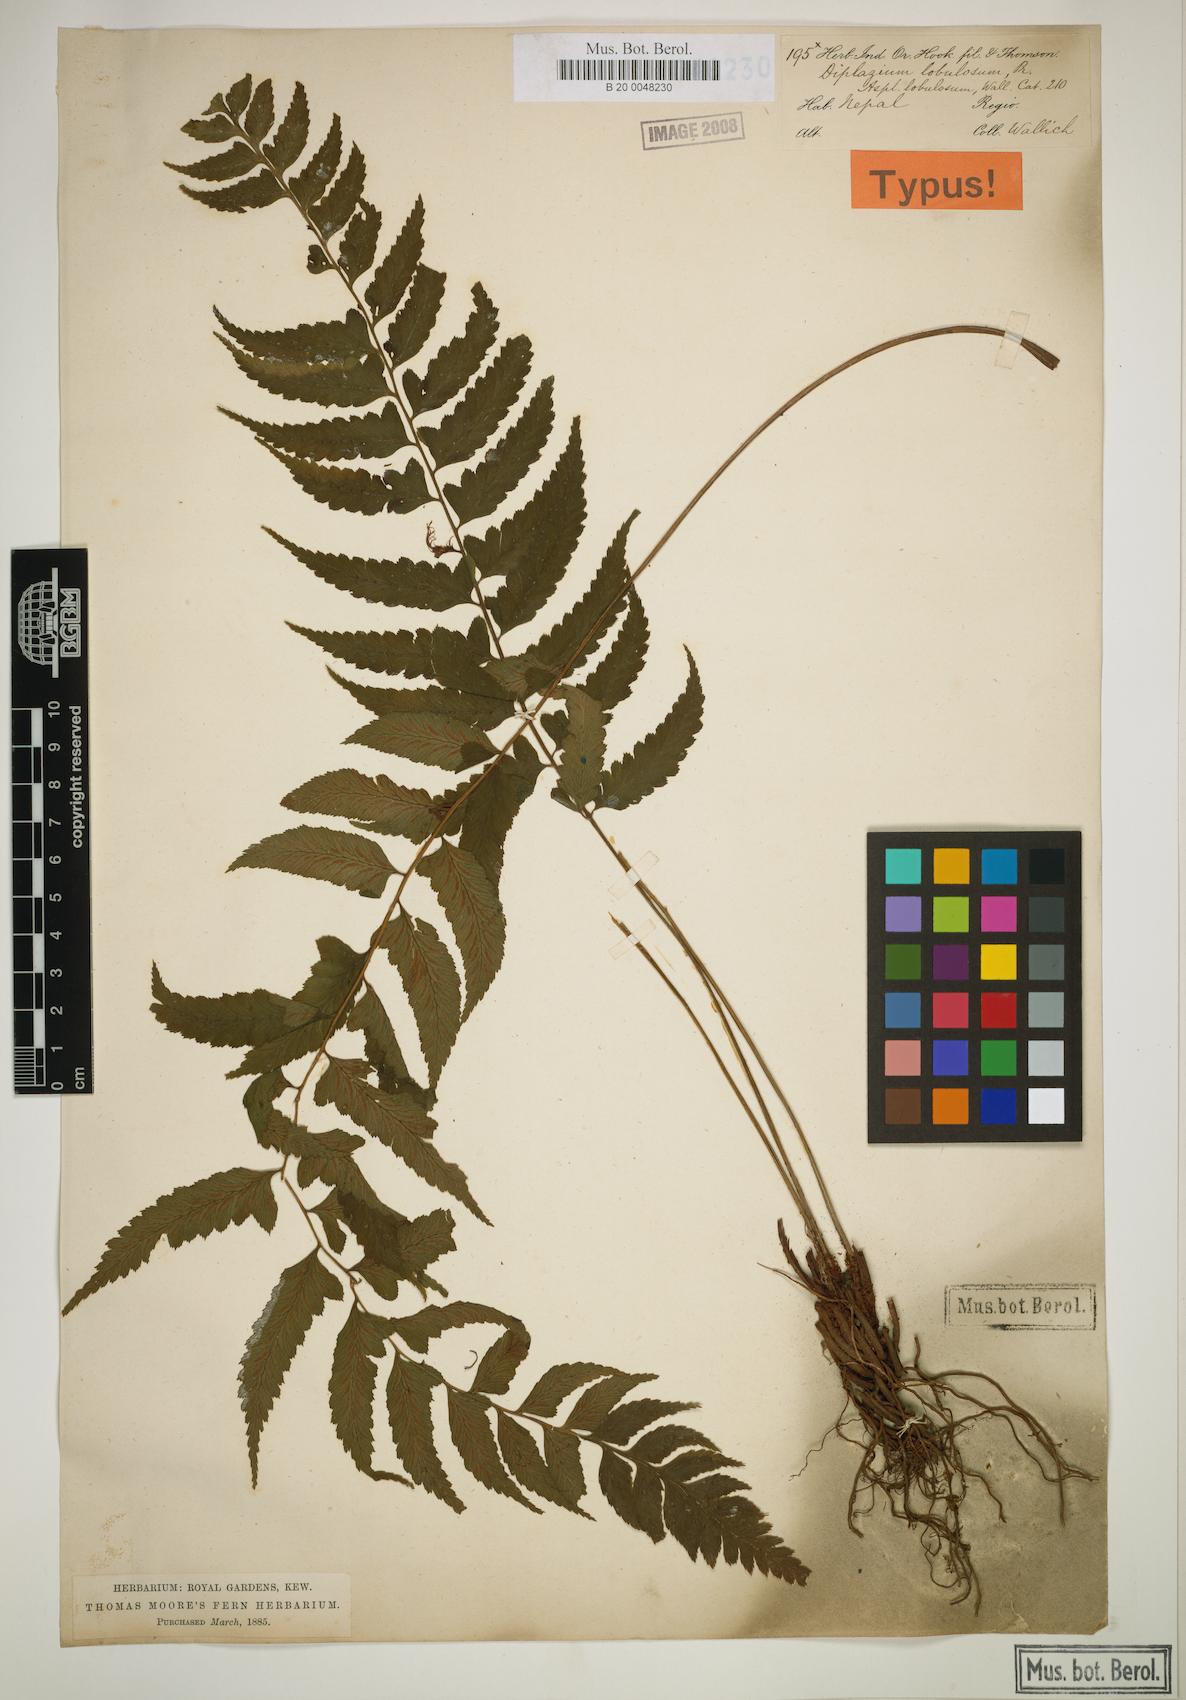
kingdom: Plantae
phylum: Tracheophyta
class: Polypodiopsida
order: Polypodiales
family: Athyriaceae
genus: Diplazium
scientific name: Diplazium longifolium
